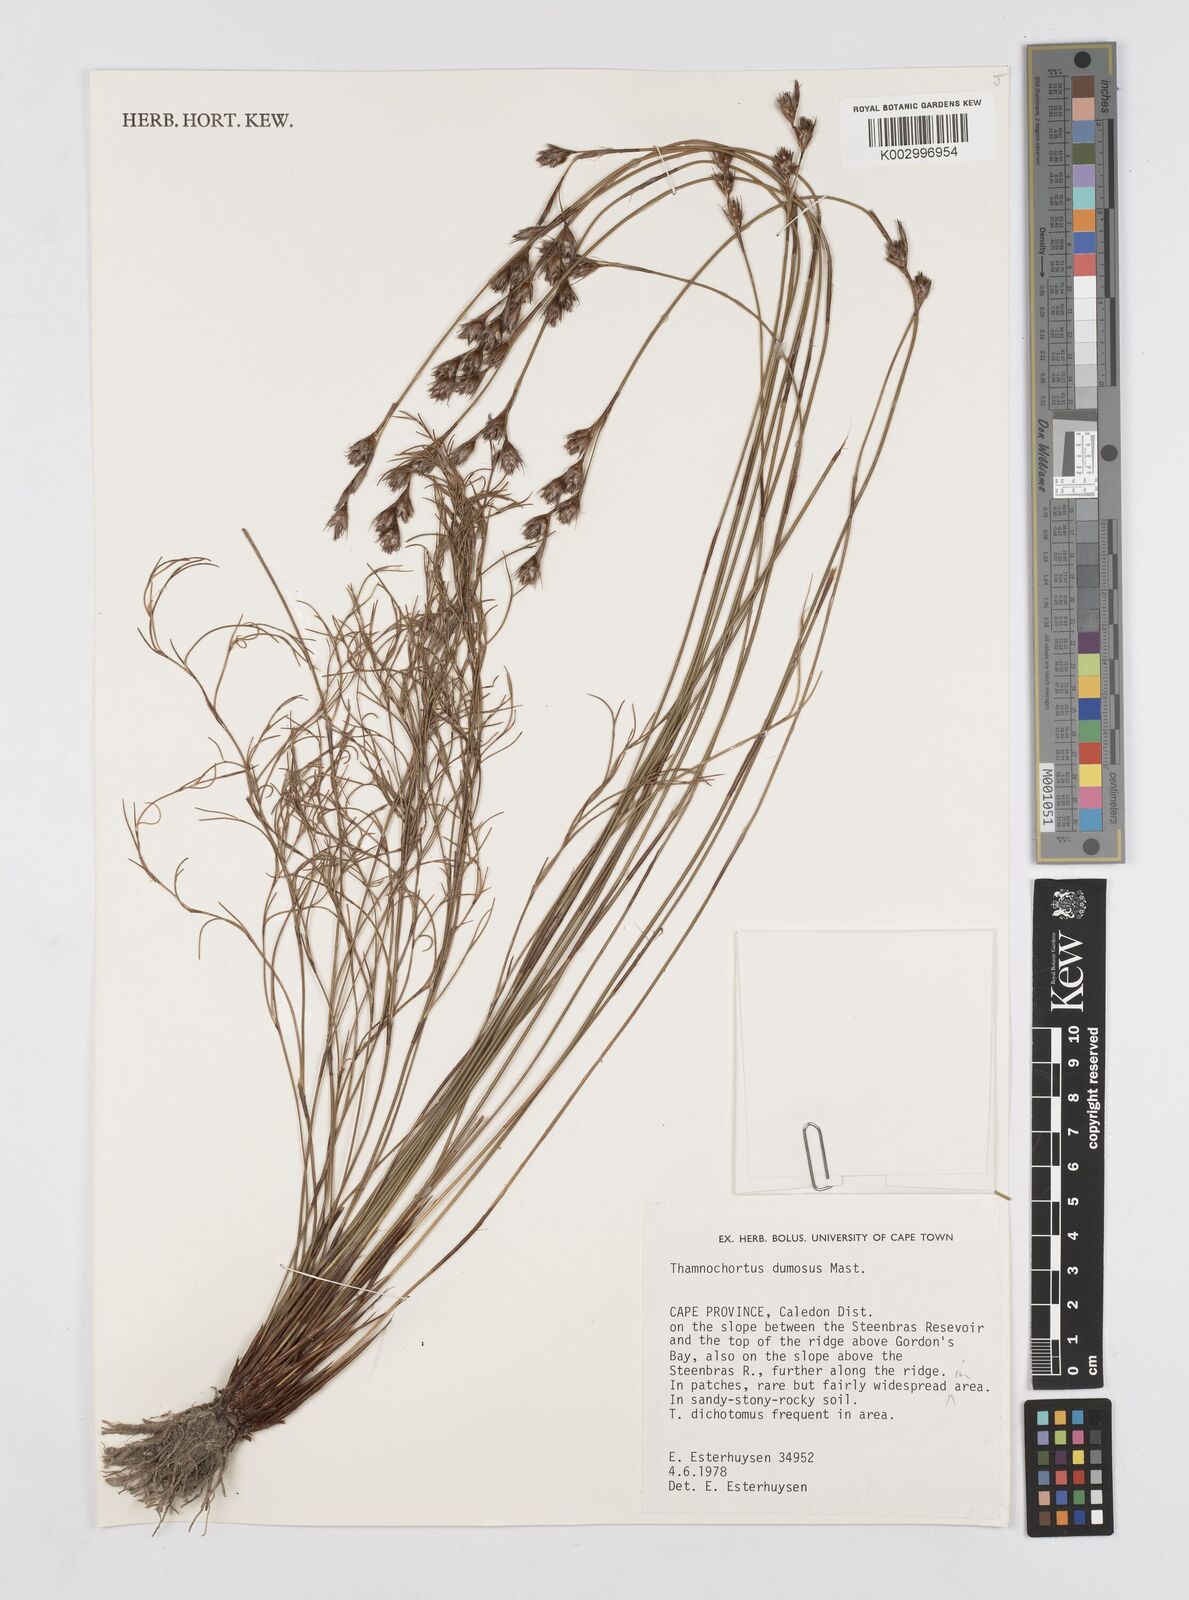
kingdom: Plantae
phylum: Tracheophyta
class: Liliopsida
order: Poales
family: Restionaceae
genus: Thamnochortus
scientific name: Thamnochortus dumosus
